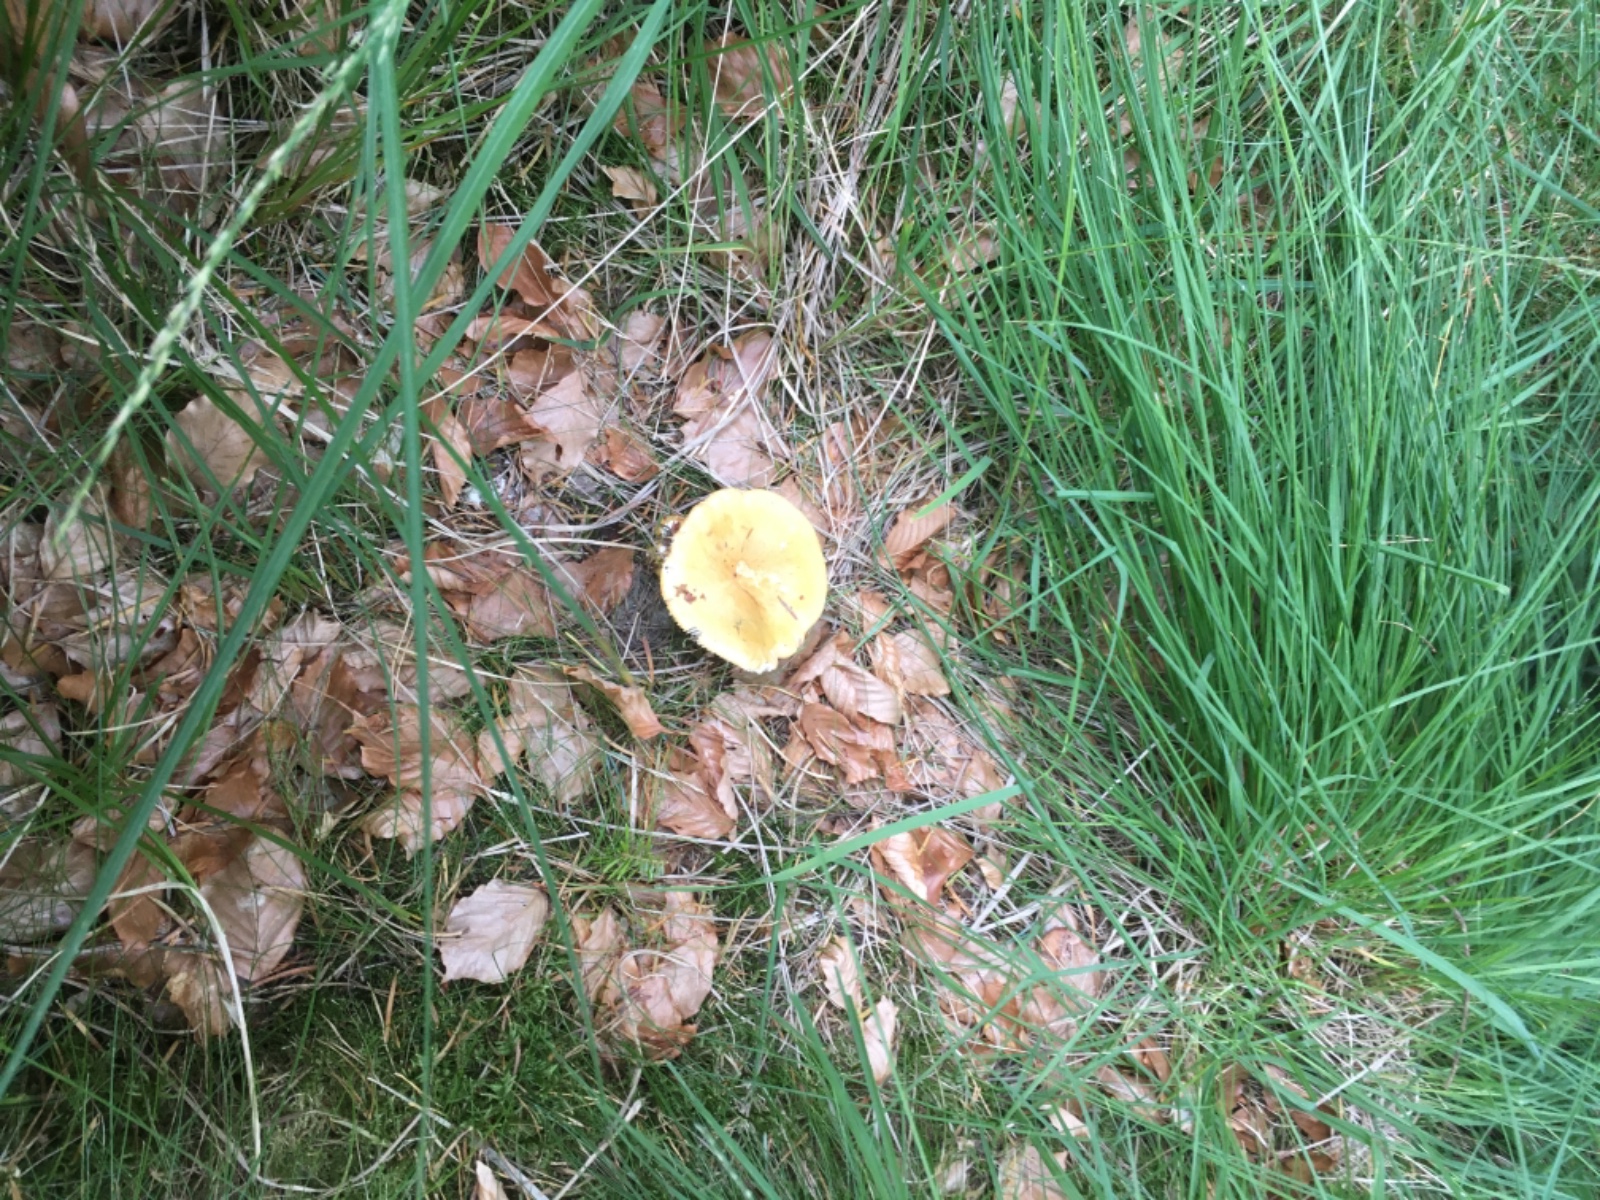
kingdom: Fungi
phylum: Basidiomycota
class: Agaricomycetes
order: Russulales
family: Russulaceae
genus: Russula
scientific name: Russula ochroleuca
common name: okkergul skørhat
